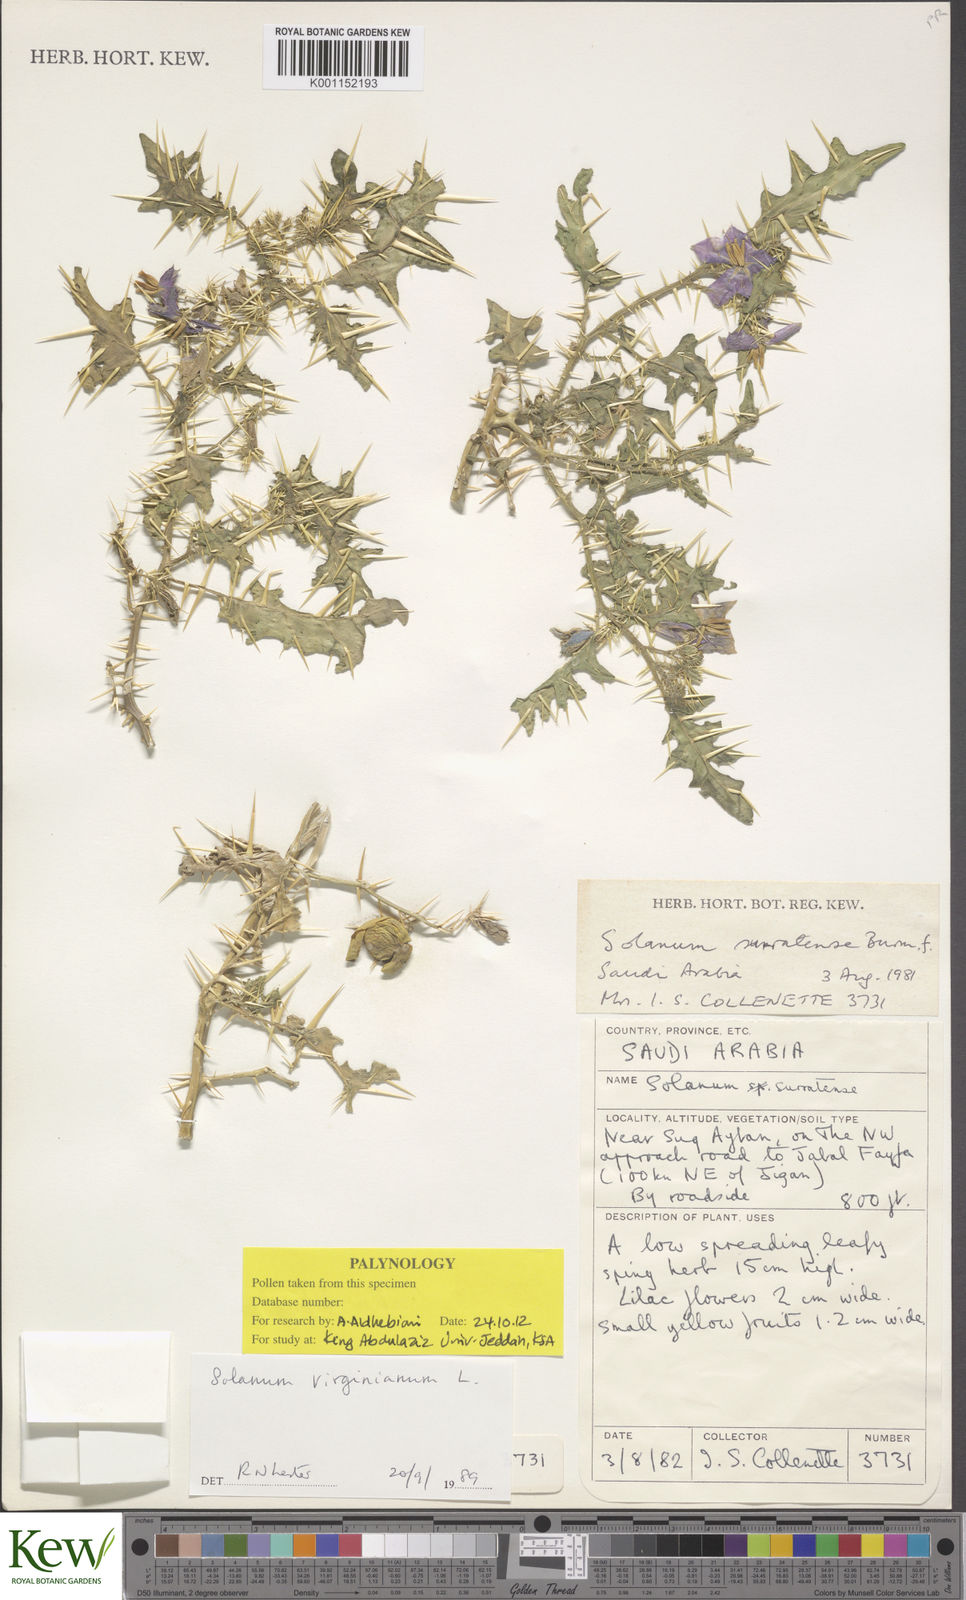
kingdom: Plantae
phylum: Tracheophyta
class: Magnoliopsida
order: Solanales
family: Solanaceae
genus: Solanum
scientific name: Solanum virginianum
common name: Surattense nightshade
